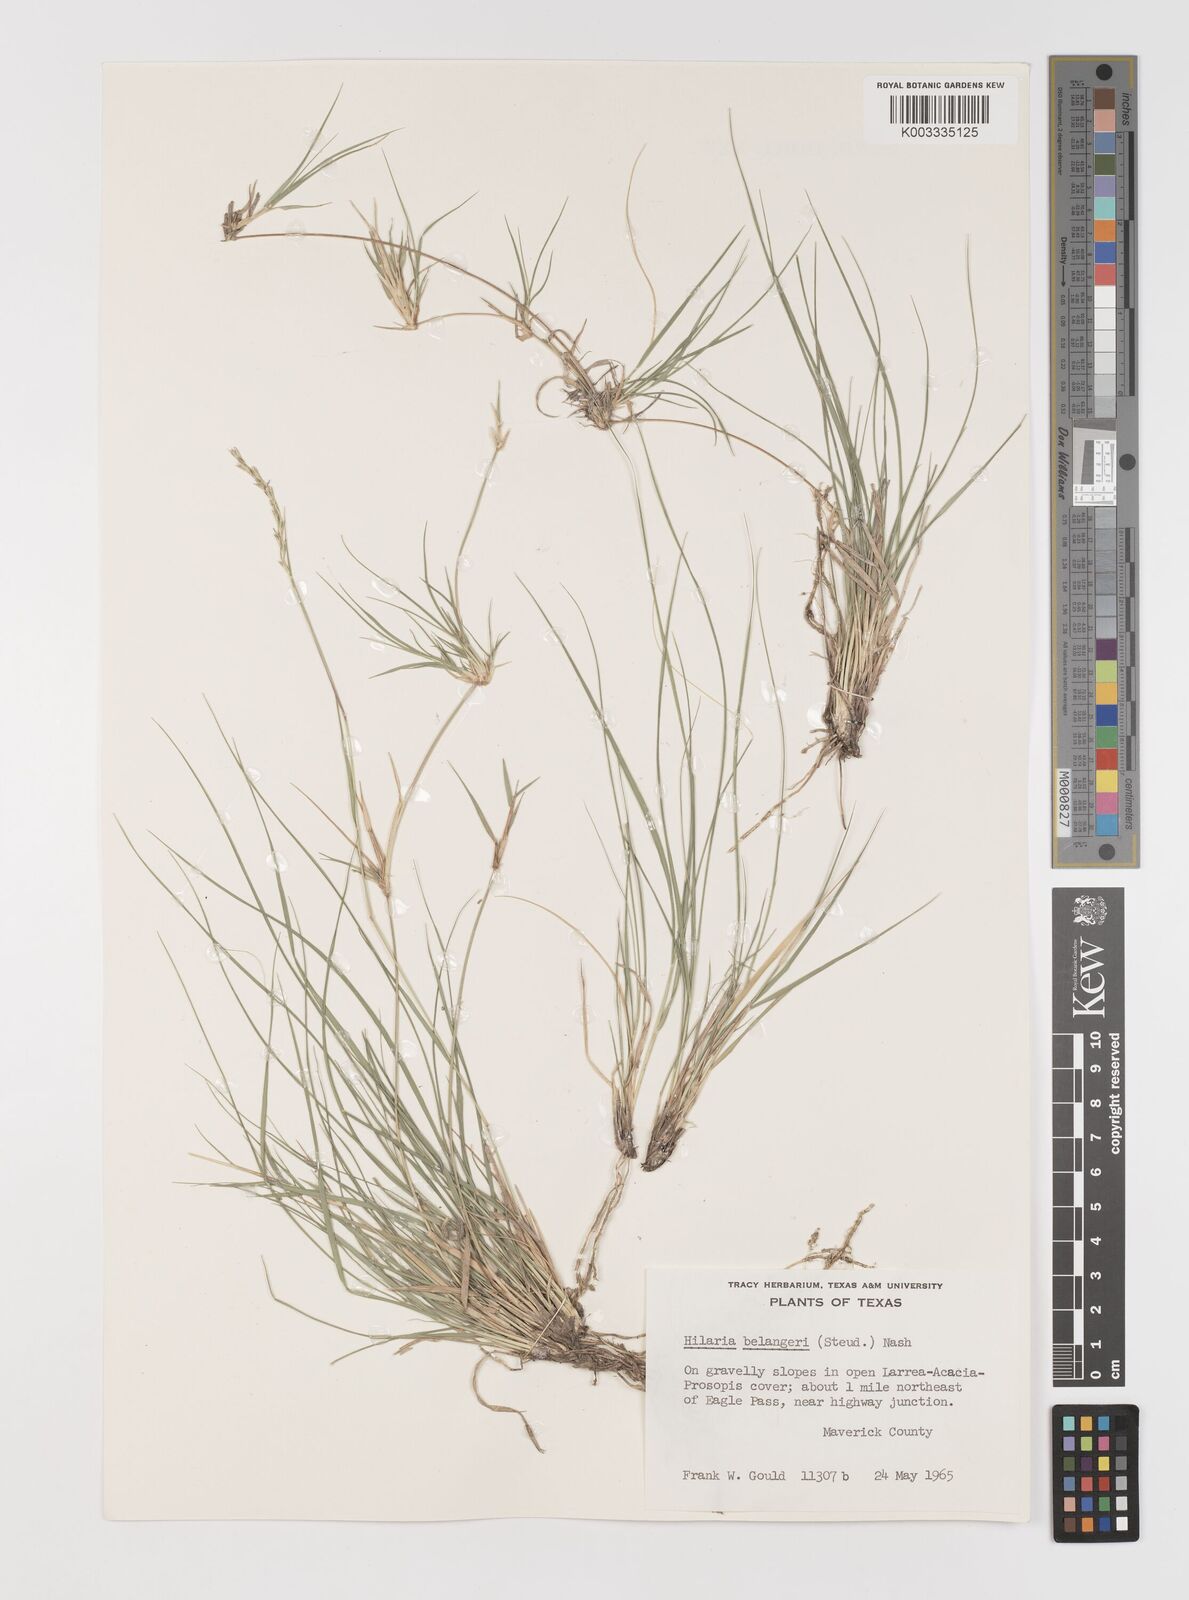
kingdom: Plantae
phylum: Tracheophyta
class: Liliopsida
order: Poales
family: Poaceae
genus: Hilaria
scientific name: Hilaria belangeri
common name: Curly-mesquite
